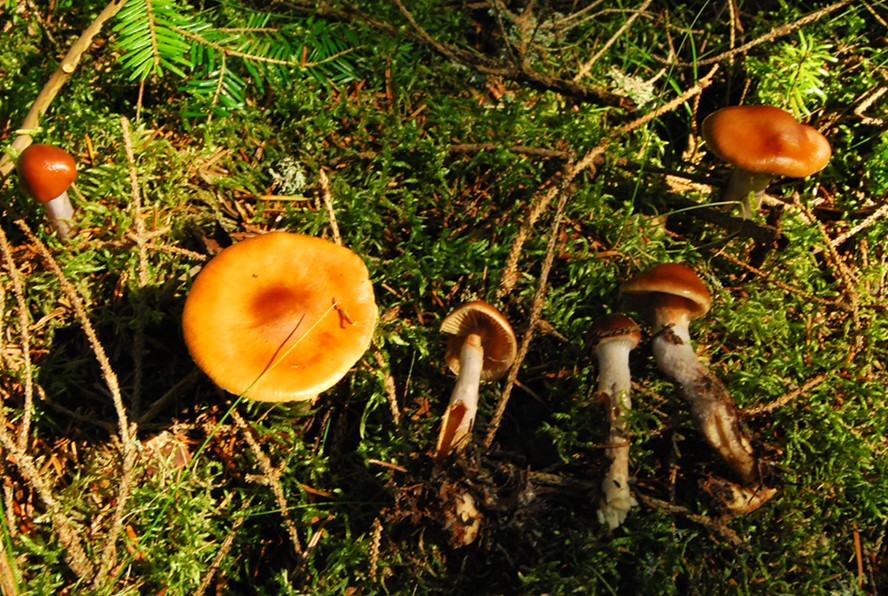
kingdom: Fungi
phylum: Basidiomycota
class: Agaricomycetes
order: Agaricales
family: Cortinariaceae
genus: Cortinarius
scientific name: Cortinarius collinitus
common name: spættet slørhat
